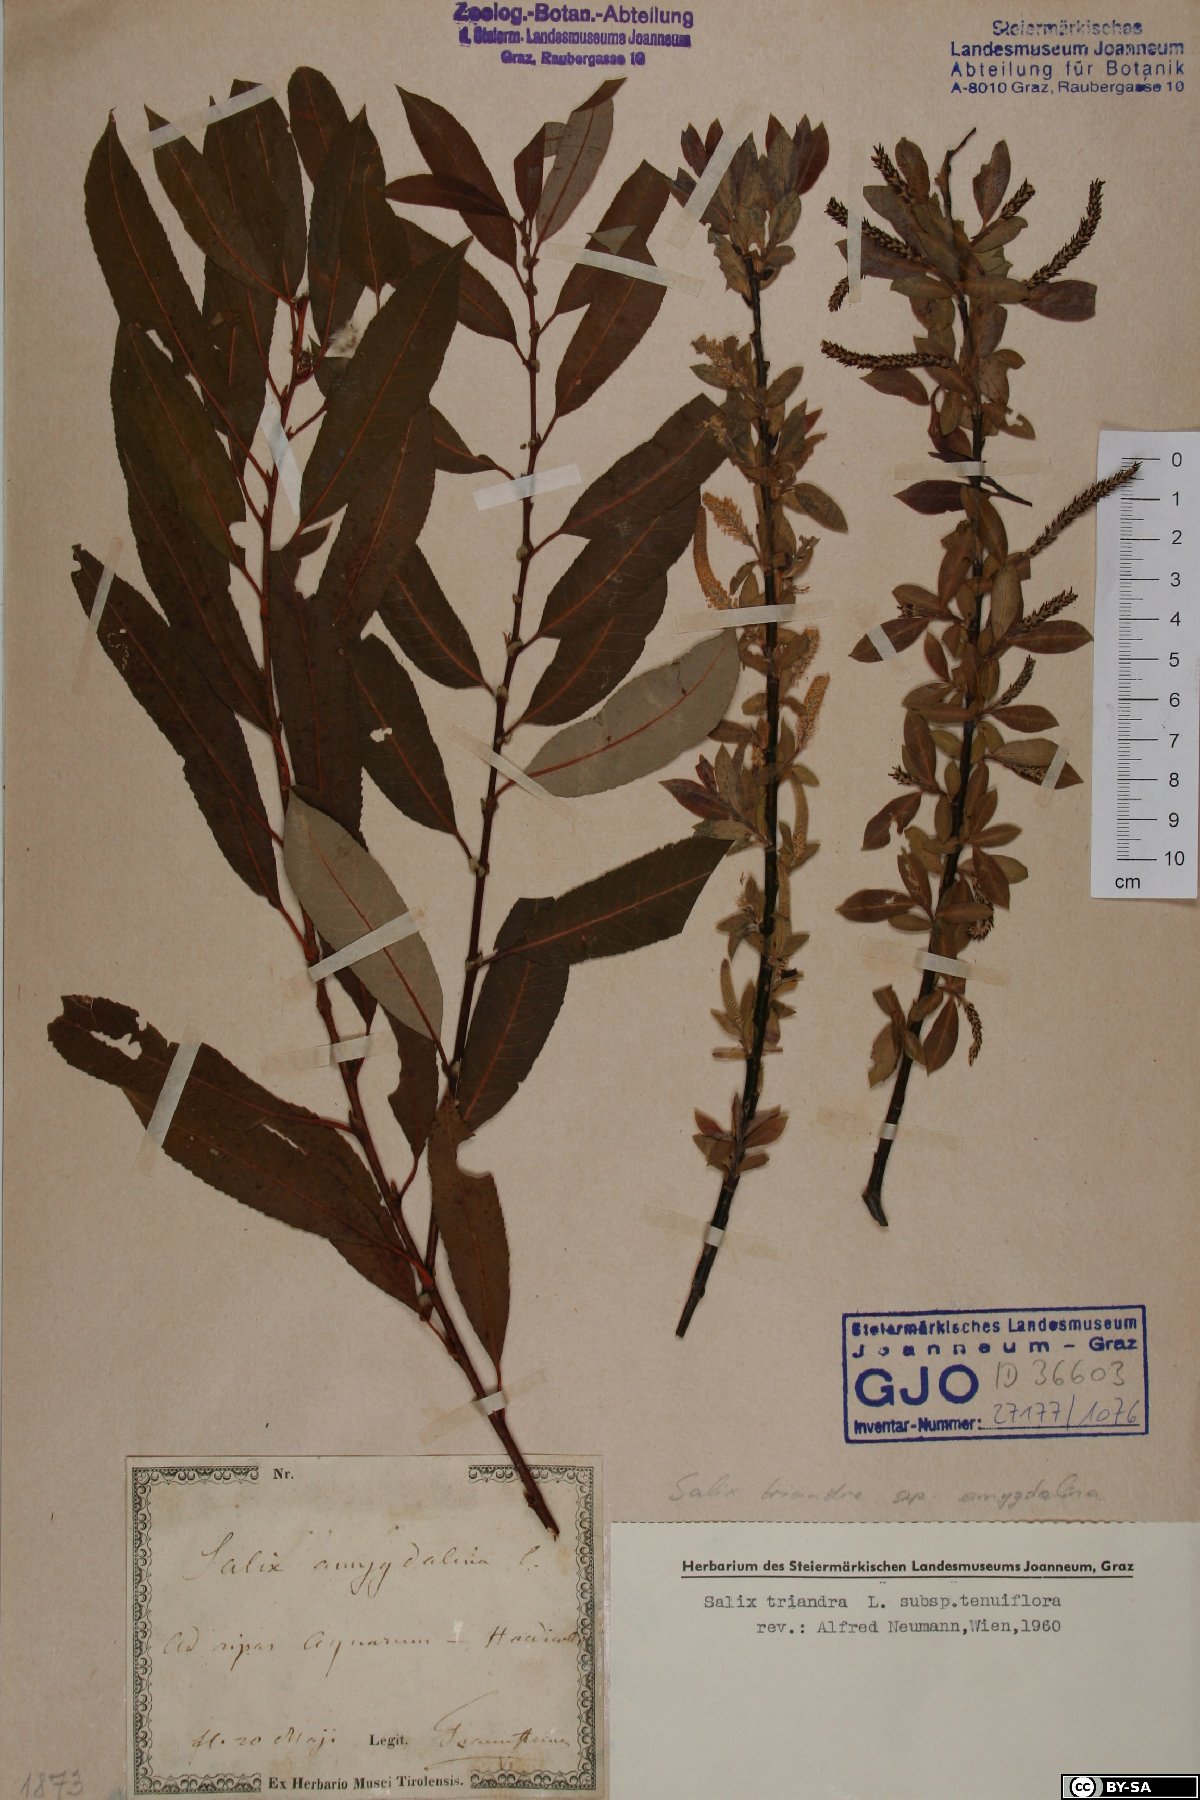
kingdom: Plantae
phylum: Tracheophyta
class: Magnoliopsida
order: Malpighiales
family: Salicaceae
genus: Salix
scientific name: Salix triandra
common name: Almond willow
